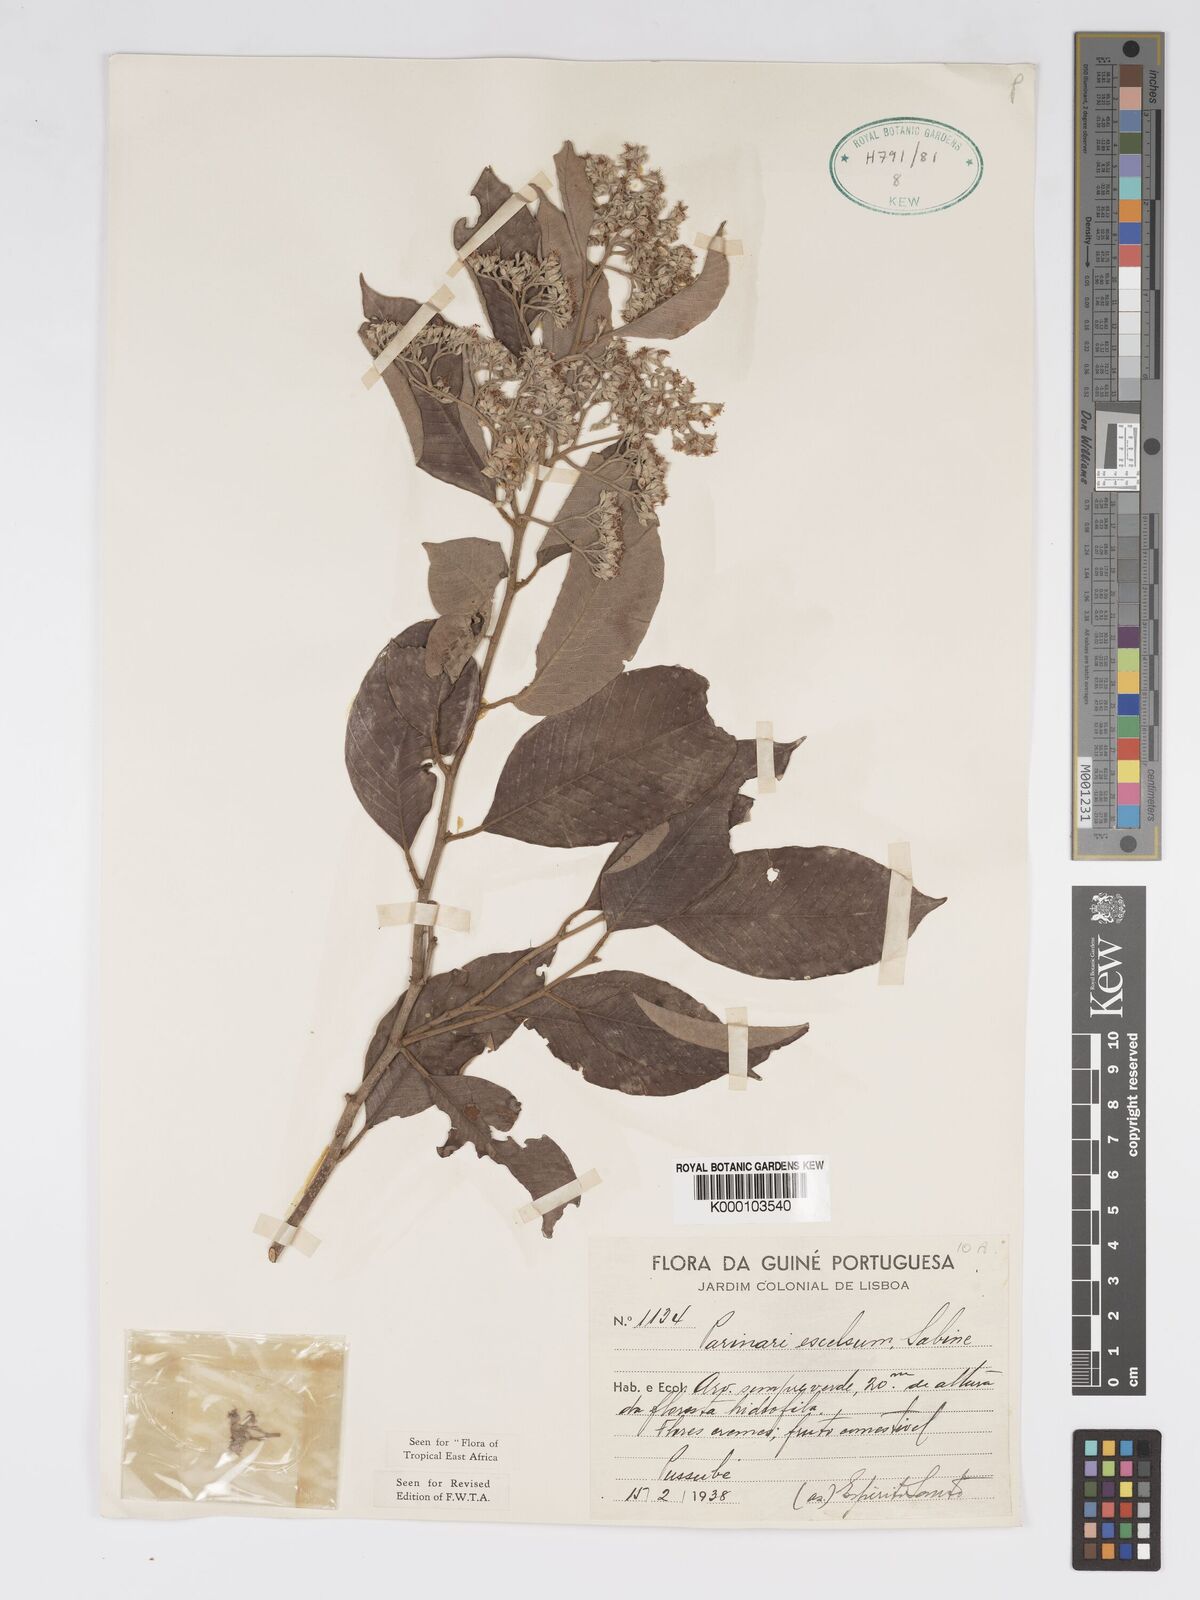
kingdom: Plantae
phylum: Tracheophyta
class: Magnoliopsida
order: Malpighiales
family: Chrysobalanaceae
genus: Parinari
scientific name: Parinari excelsa
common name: Guinea-plum
